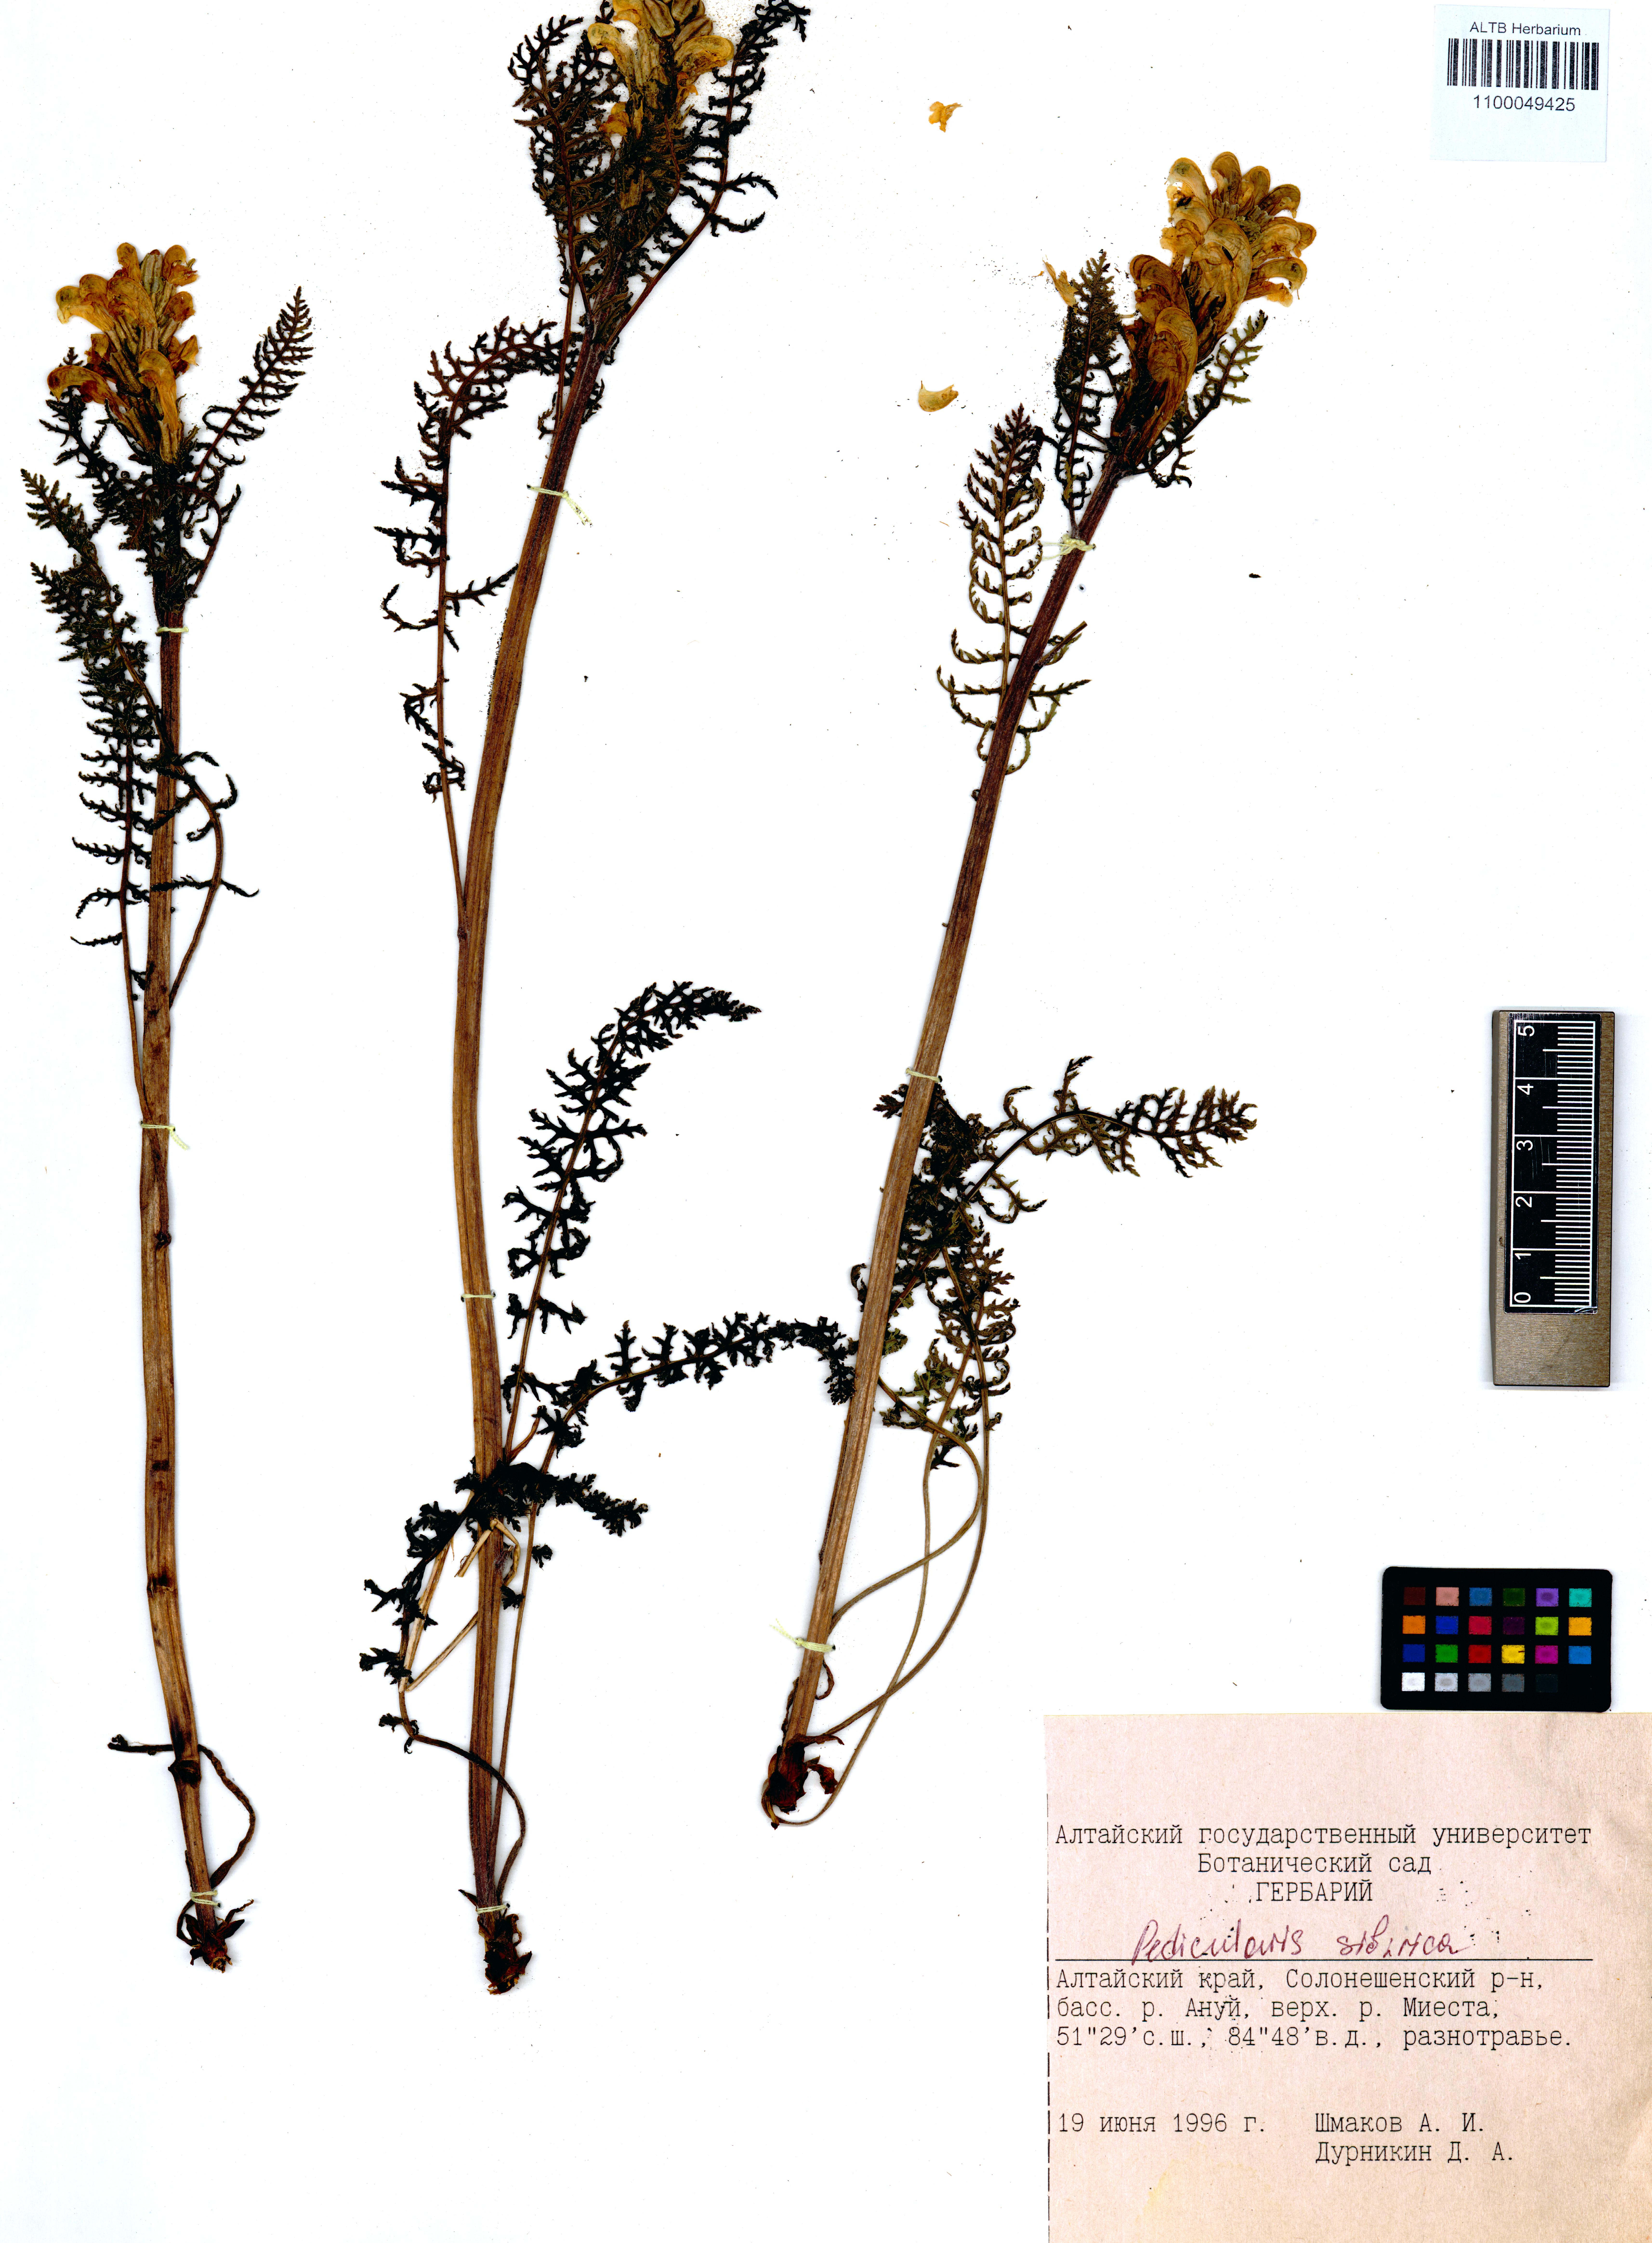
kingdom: Plantae
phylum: Tracheophyta
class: Magnoliopsida
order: Lamiales
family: Orobanchaceae
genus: Pedicularis
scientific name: Pedicularis sibirica
